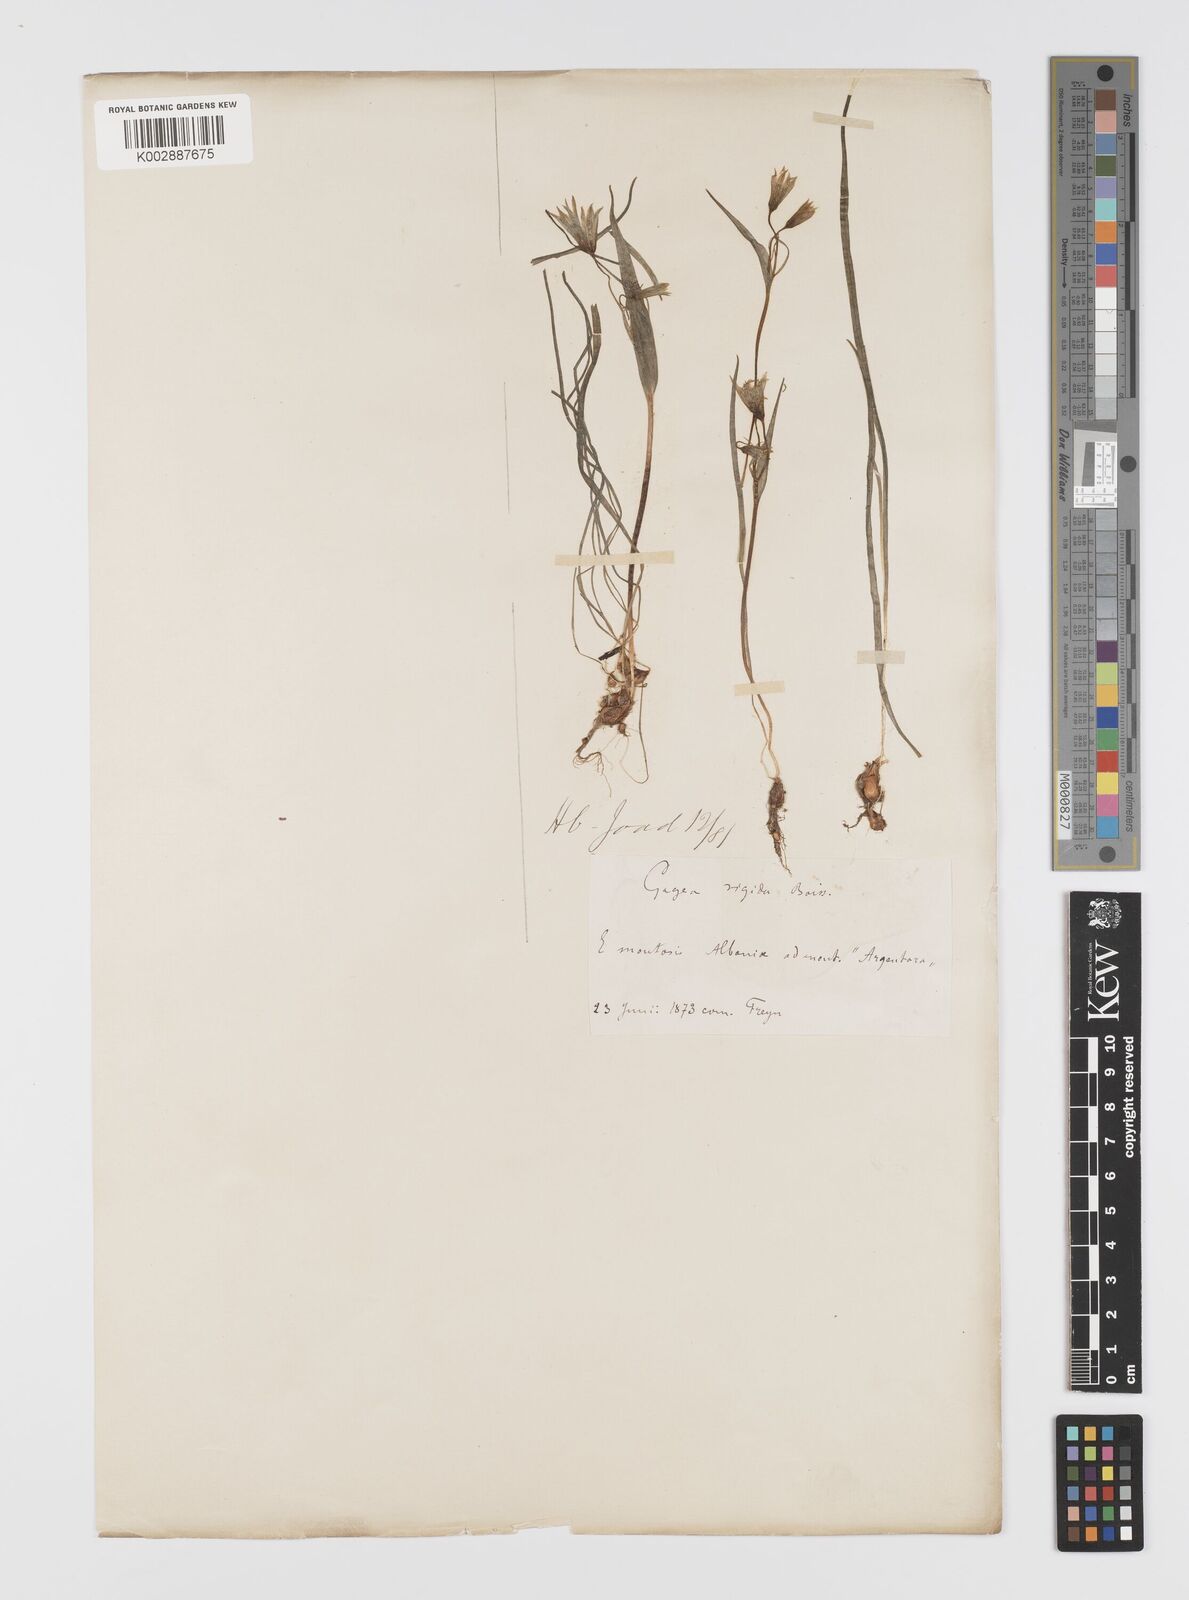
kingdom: Plantae
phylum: Tracheophyta
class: Liliopsida
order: Liliales
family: Liliaceae
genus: Gagea
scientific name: Gagea
